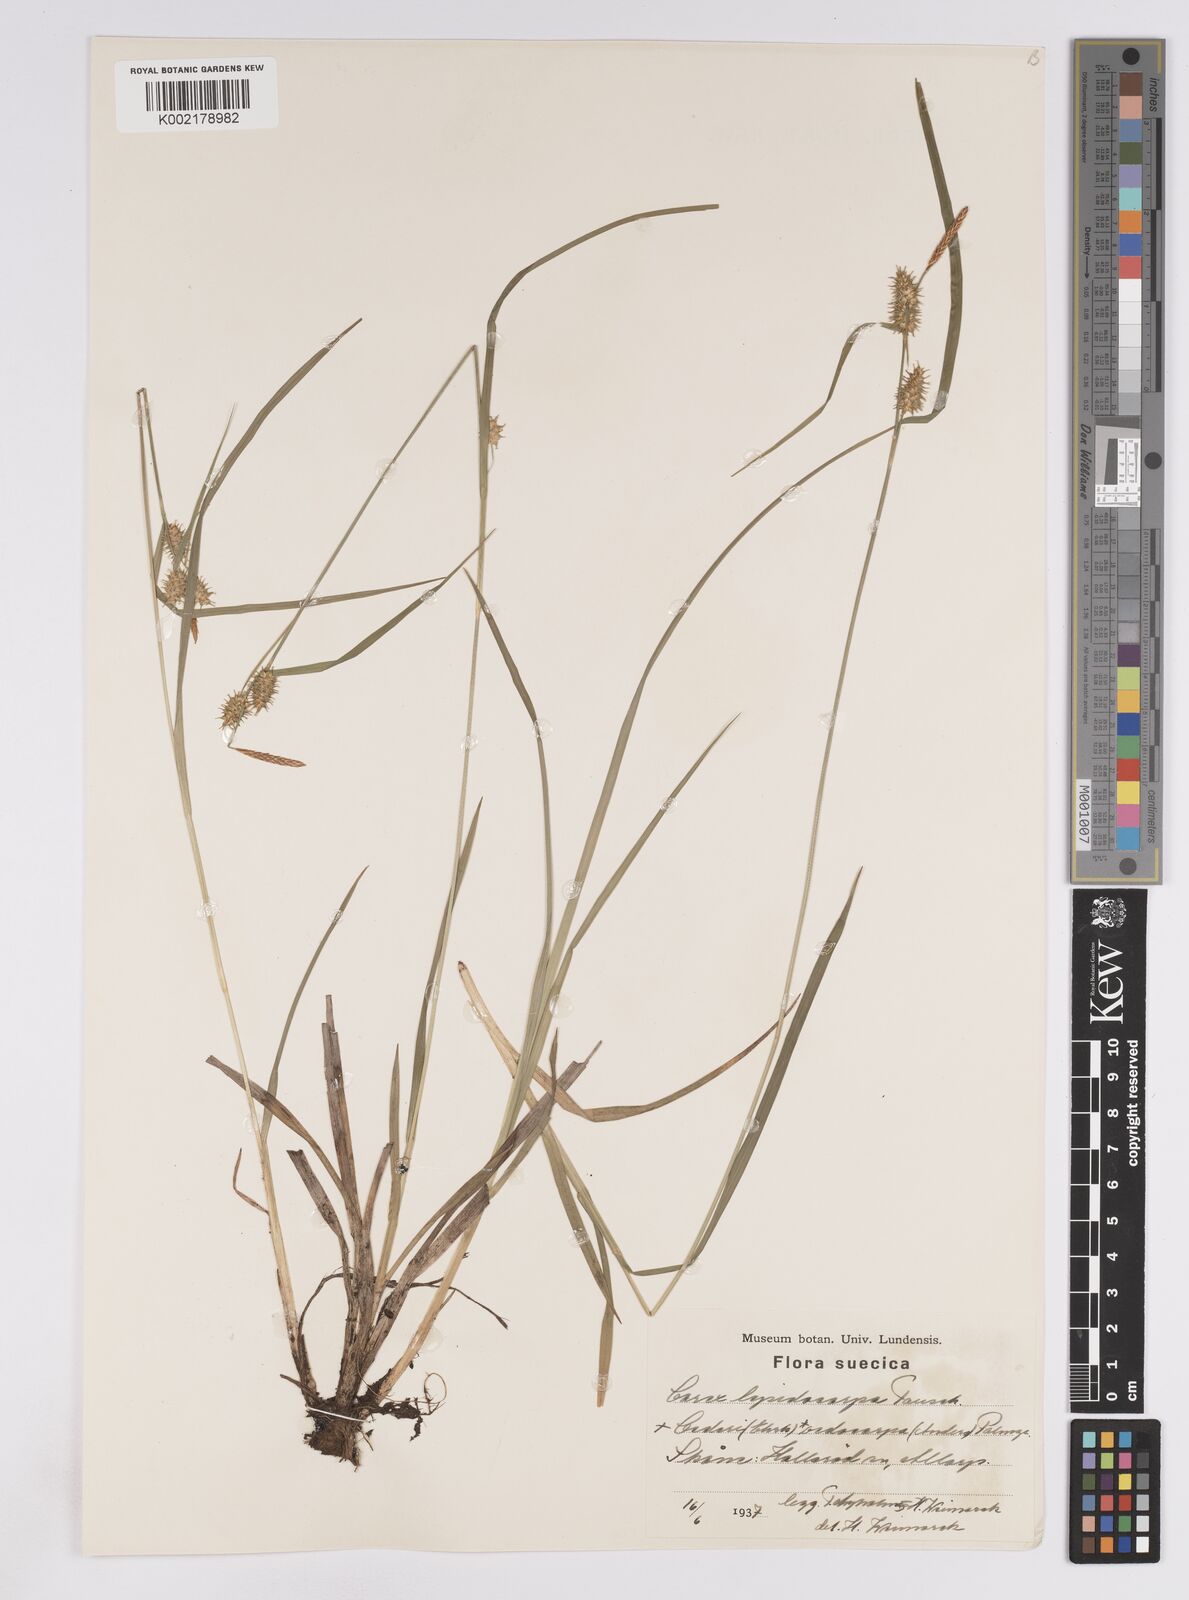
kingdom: Plantae
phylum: Tracheophyta
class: Liliopsida
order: Poales
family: Cyperaceae
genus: Carex
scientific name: Carex lepidocarpa
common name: Long-stalked yellow-sedge
